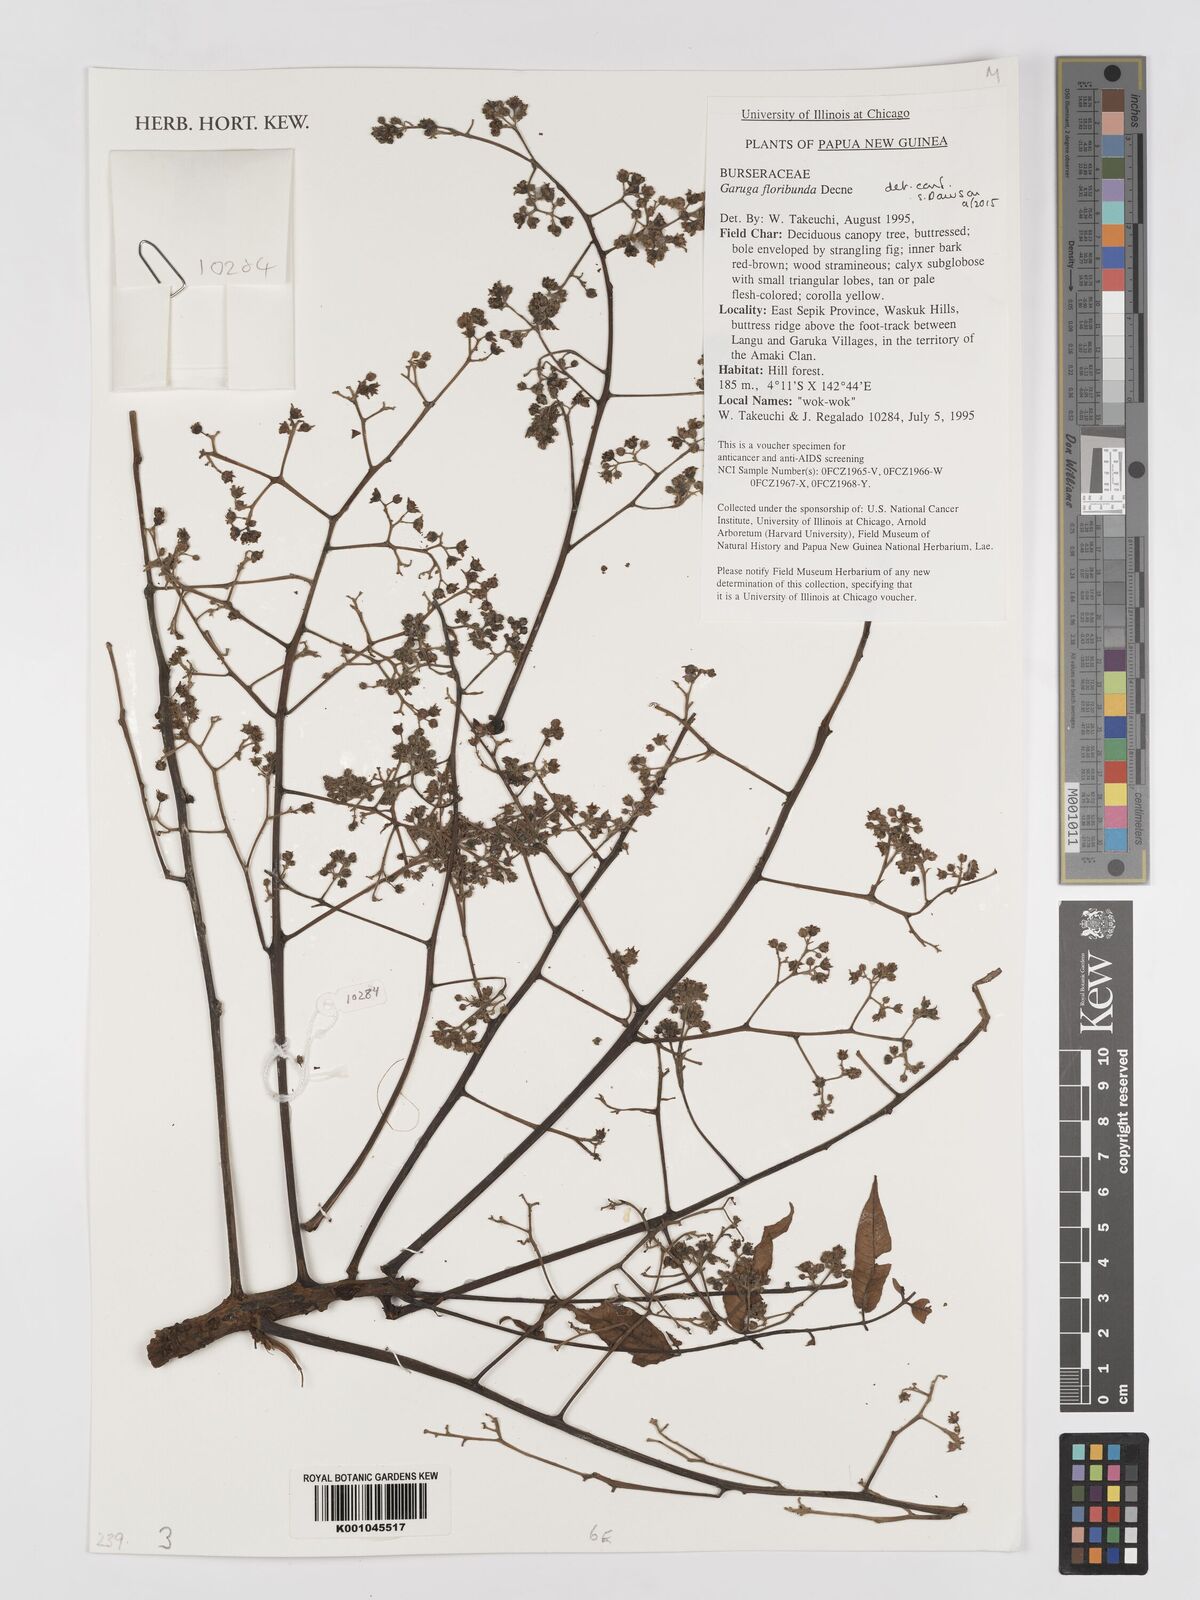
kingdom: Plantae
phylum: Tracheophyta
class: Magnoliopsida
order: Sapindales
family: Burseraceae
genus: Garuga
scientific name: Garuga floribunda
